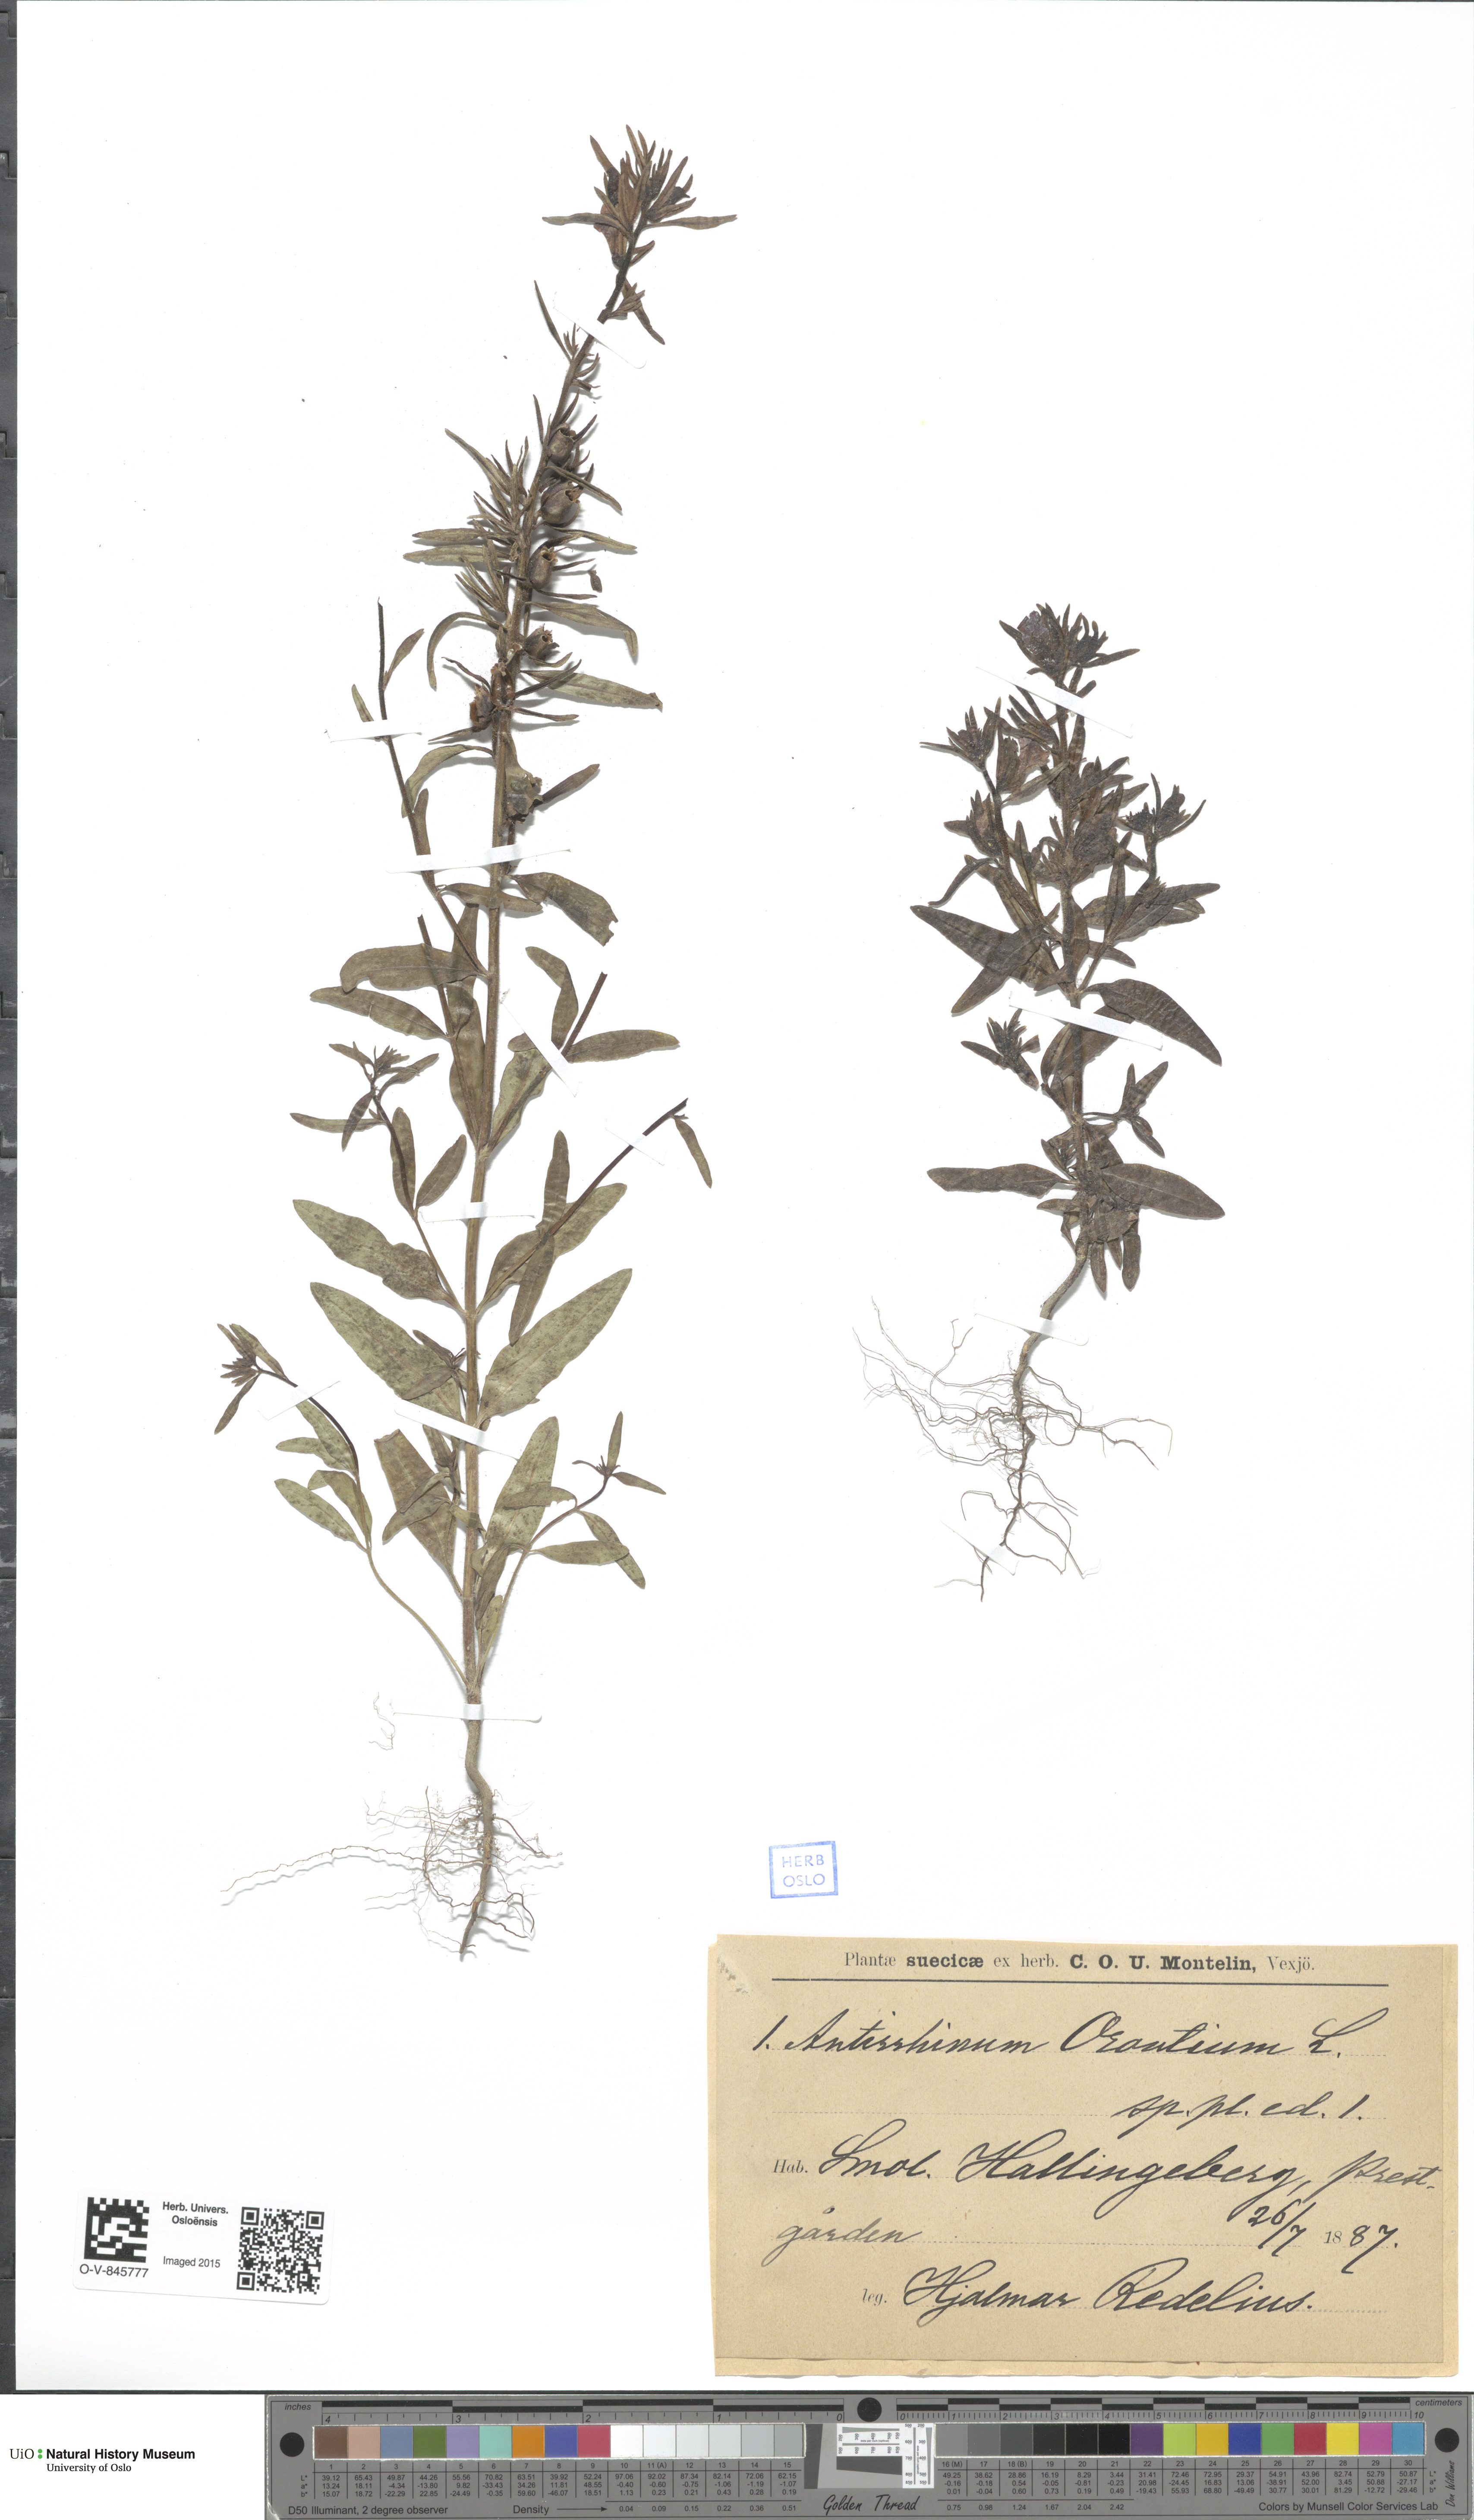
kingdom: Plantae
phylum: Tracheophyta
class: Magnoliopsida
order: Lamiales
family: Plantaginaceae
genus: Misopates
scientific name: Misopates orontium
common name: Weasel's-snout
